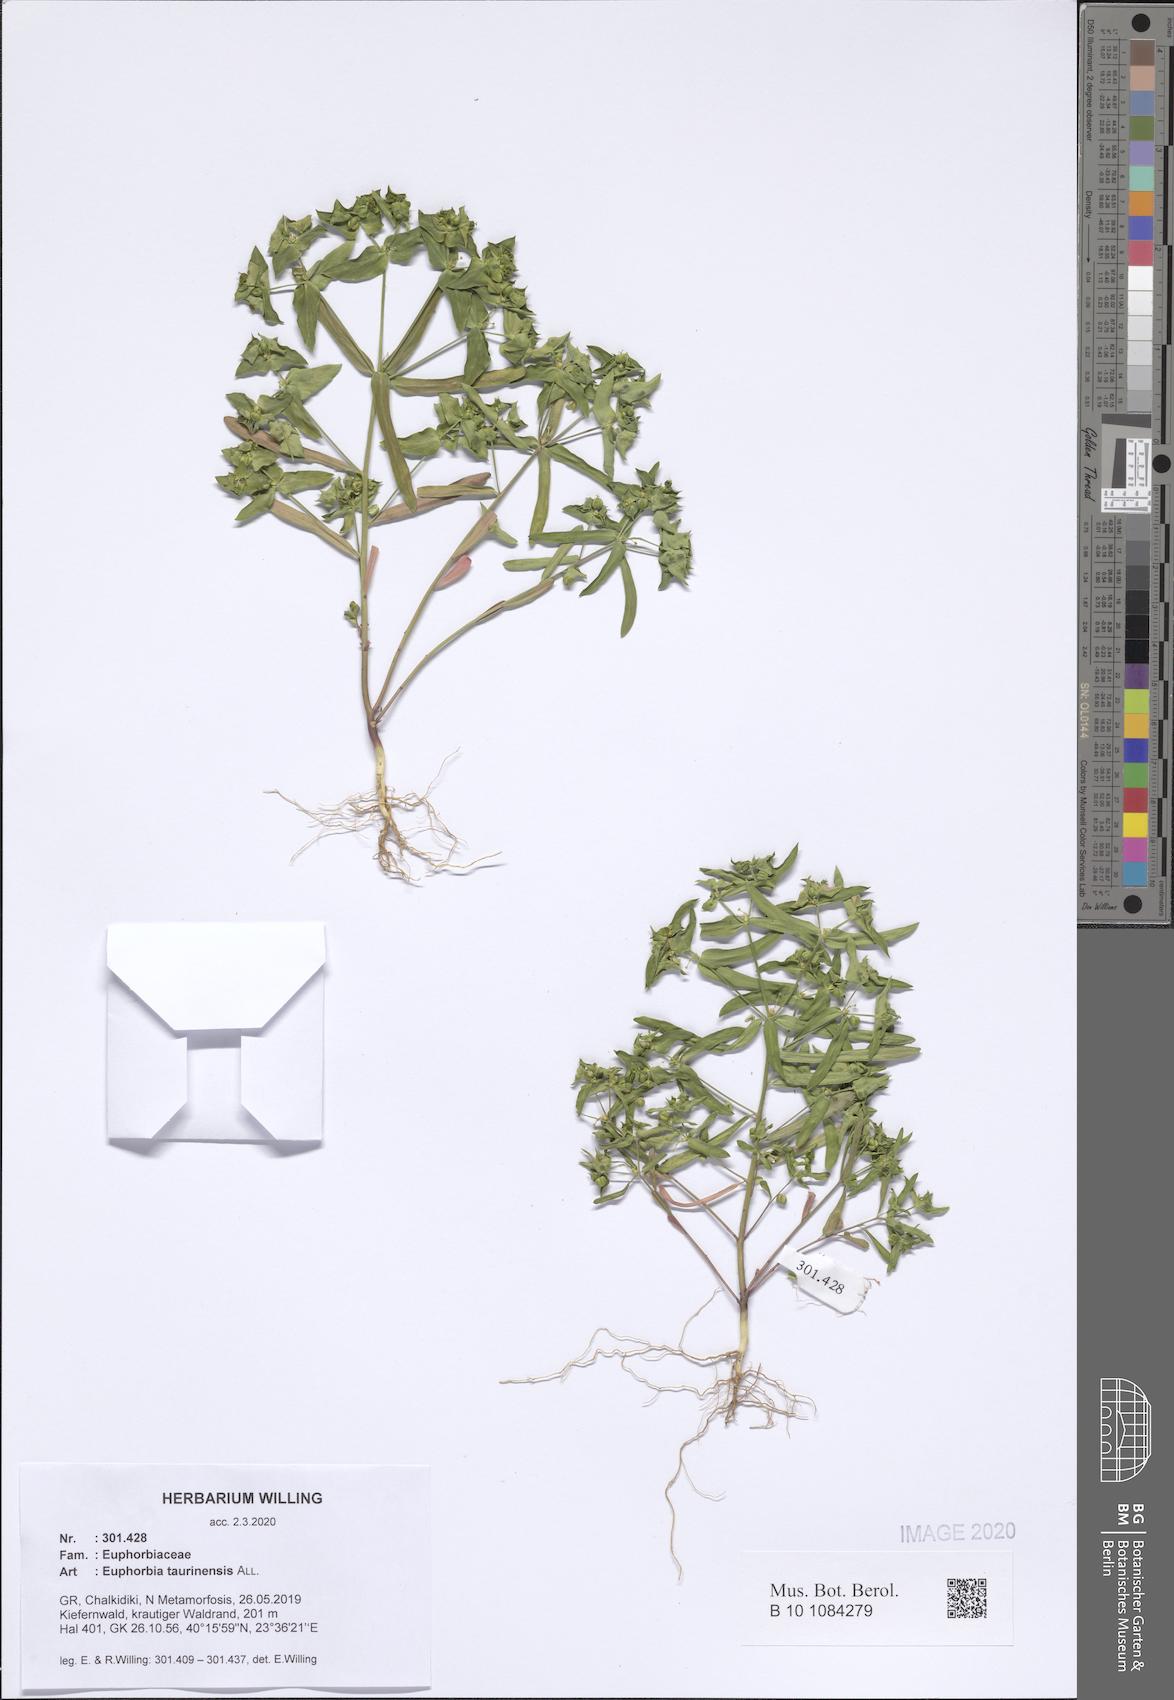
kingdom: Plantae
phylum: Tracheophyta
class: Magnoliopsida
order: Malpighiales
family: Euphorbiaceae
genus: Euphorbia
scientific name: Euphorbia taurinensis
